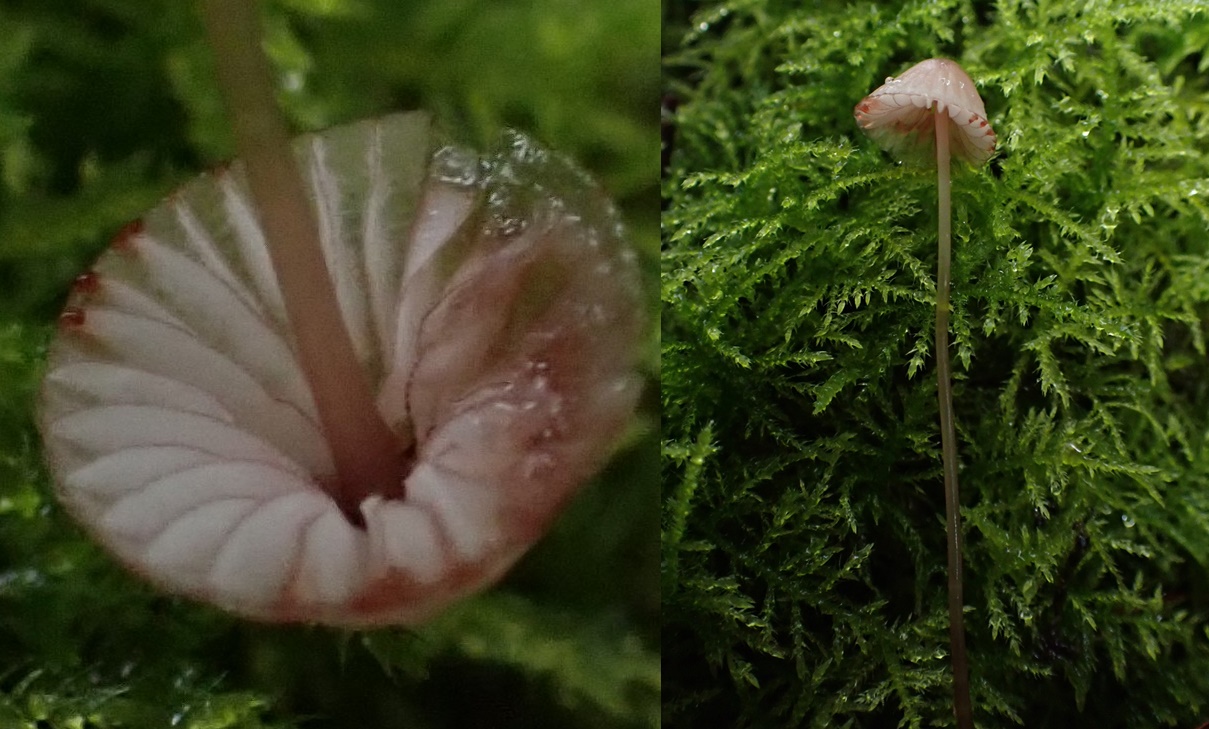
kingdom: Fungi
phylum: Basidiomycota
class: Agaricomycetes
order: Agaricales
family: Mycenaceae
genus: Mycena
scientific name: Mycena sanguinolenta
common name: rødmælket huesvamp
